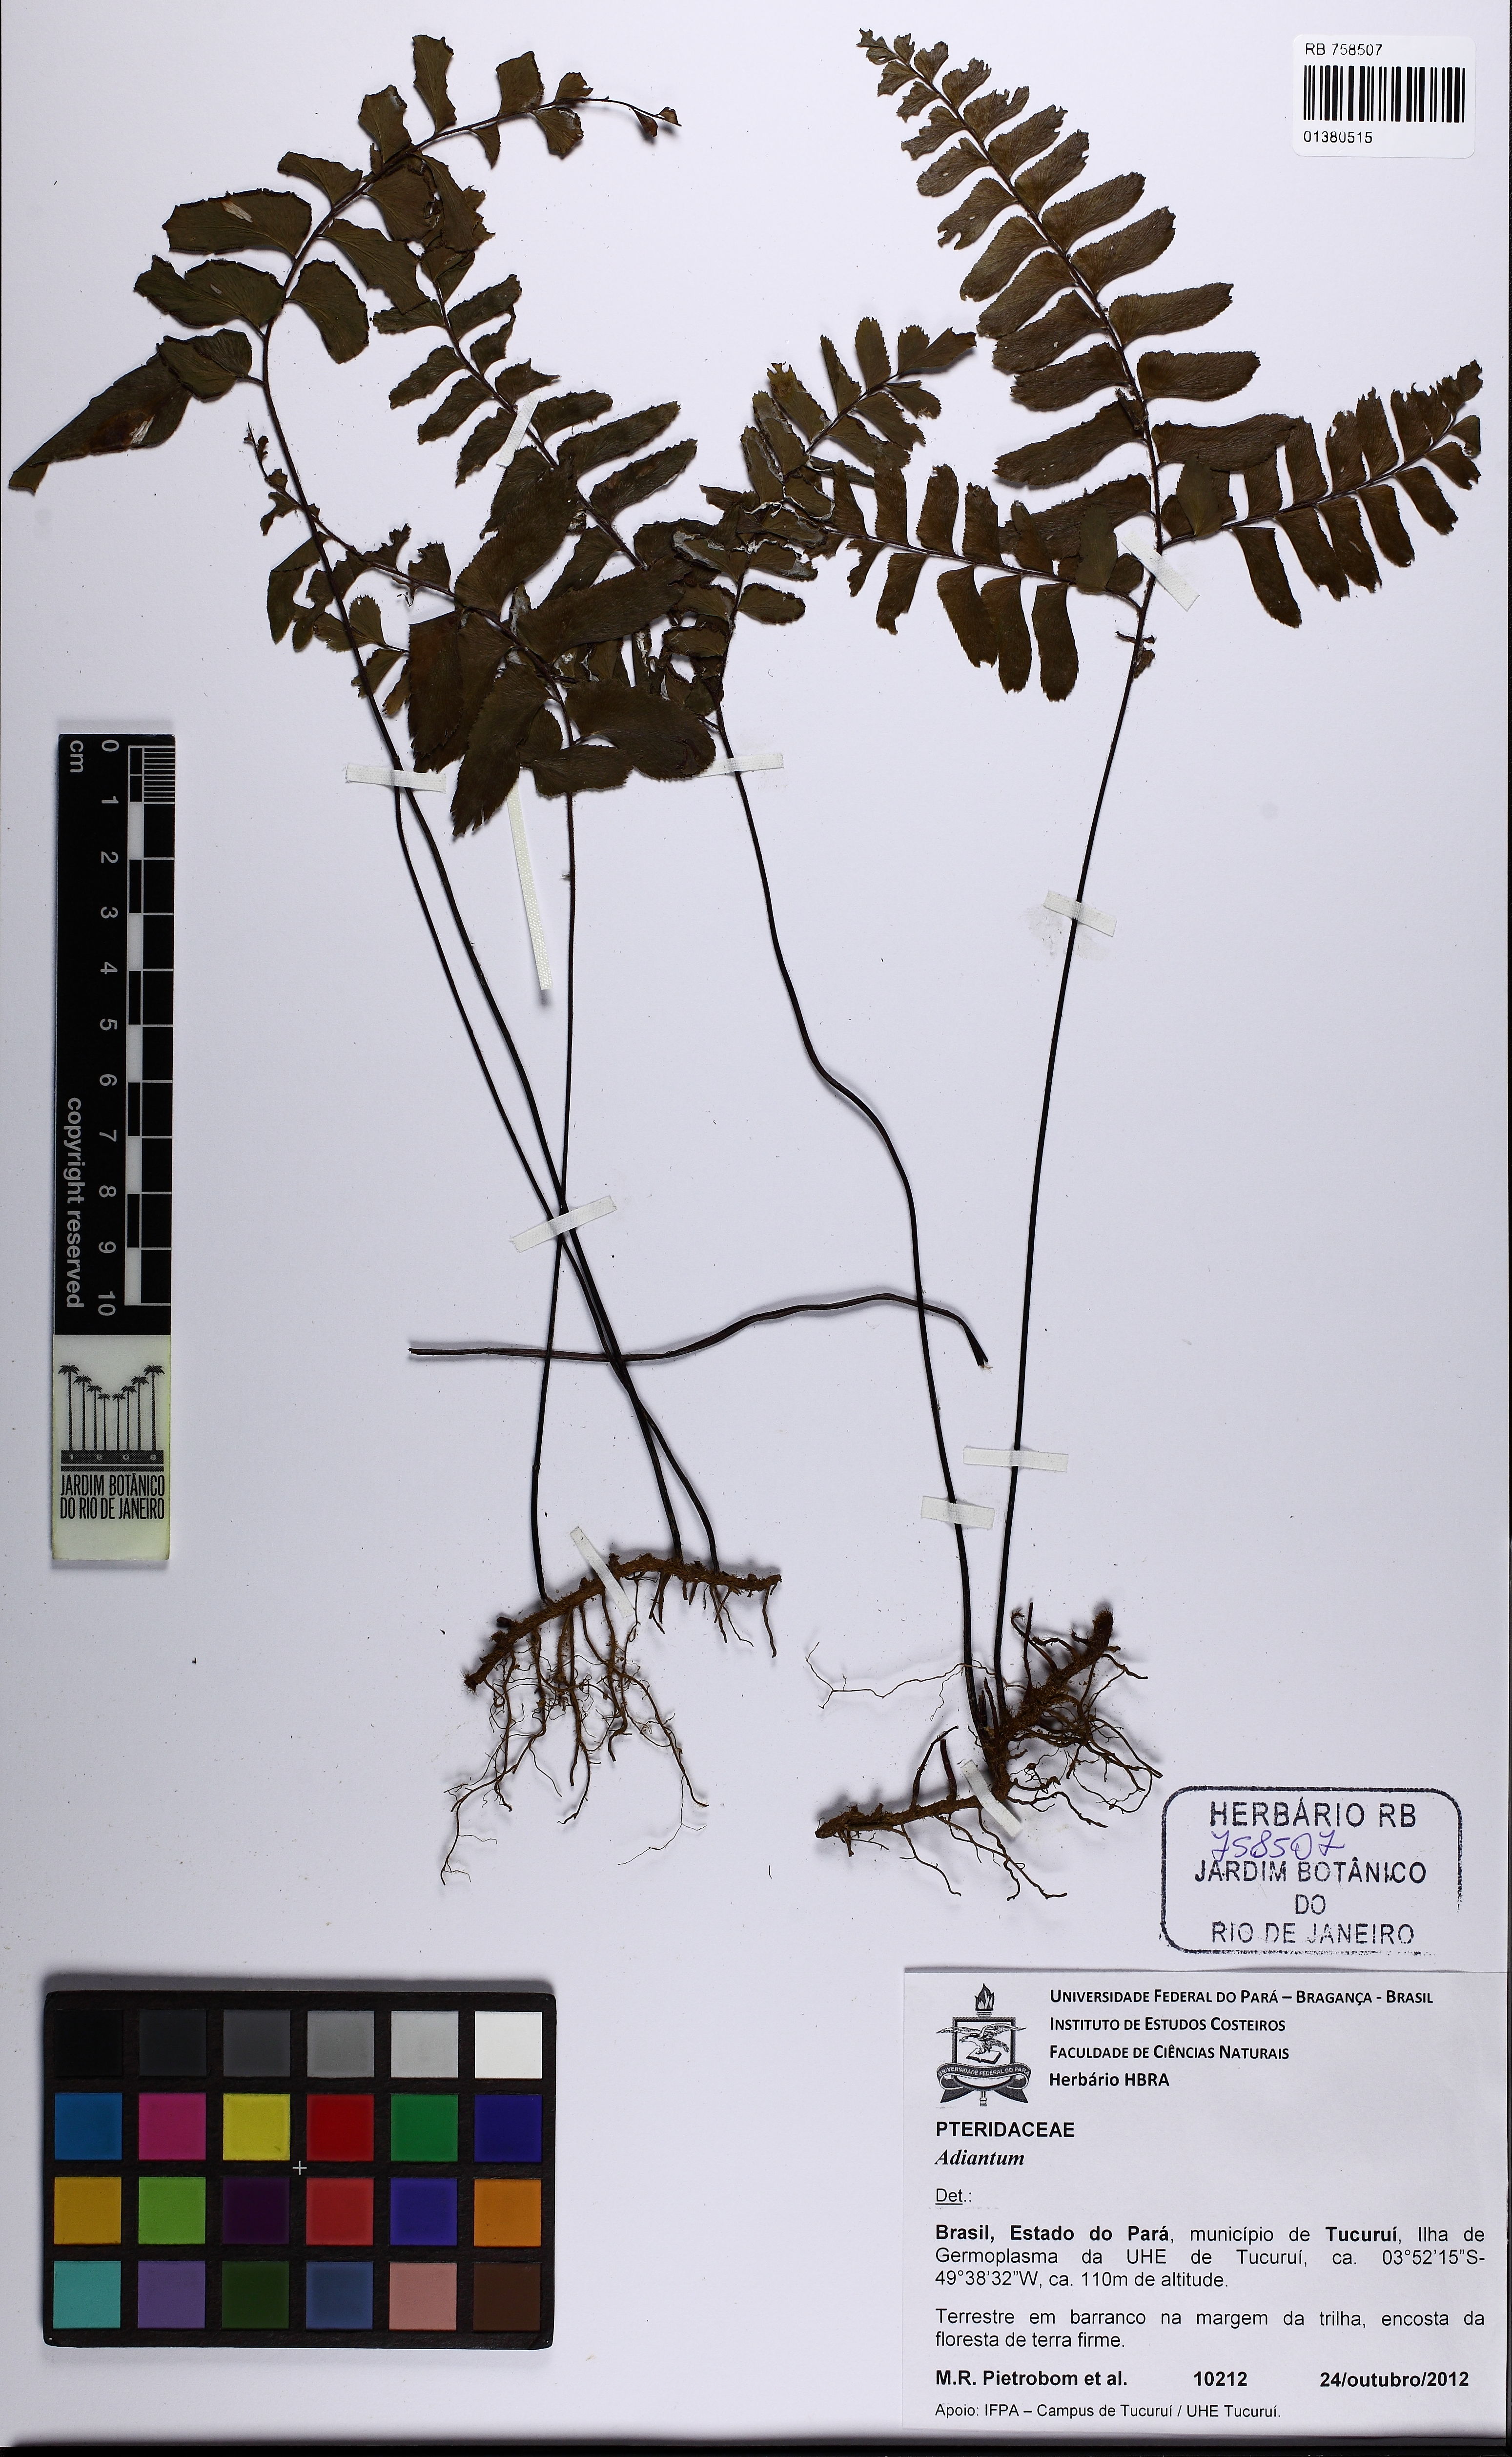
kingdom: Plantae
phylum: Tracheophyta
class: Polypodiopsida
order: Polypodiales
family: Pteridaceae
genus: Adiantum
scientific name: Adiantum
